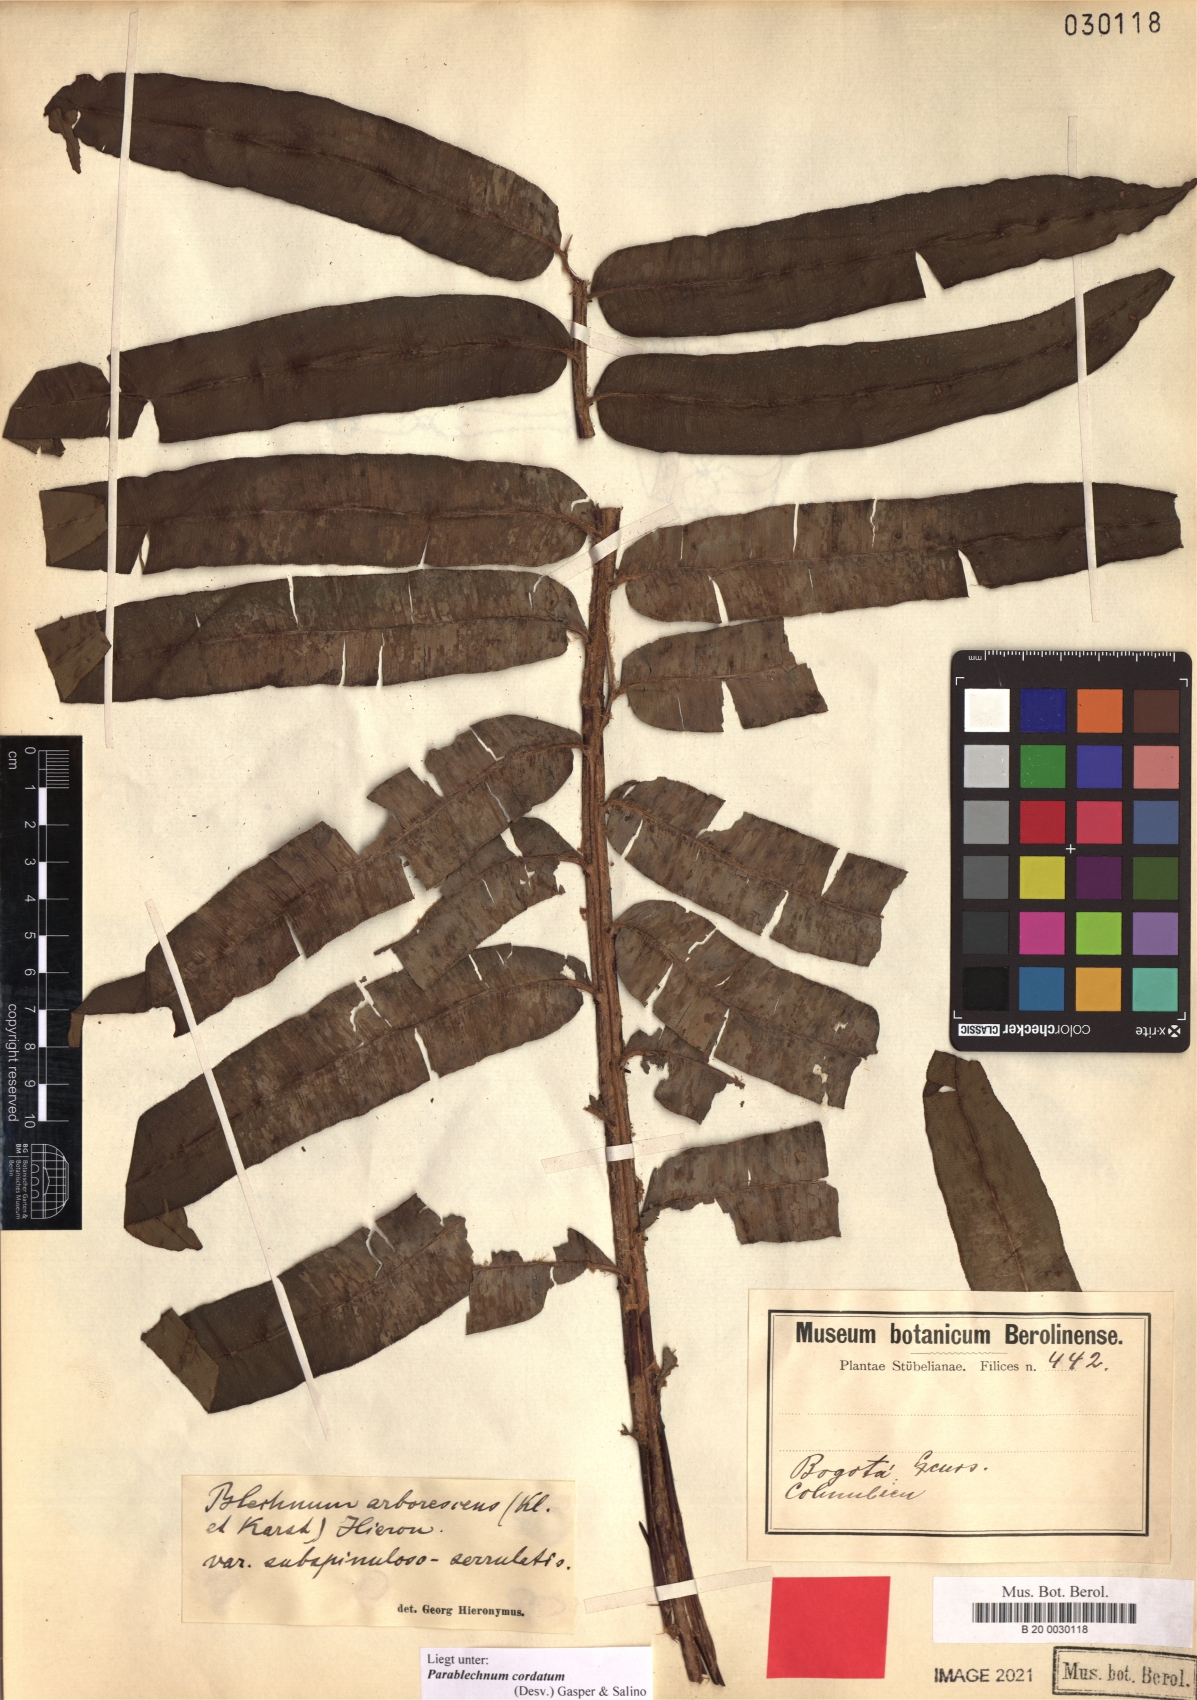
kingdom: Plantae
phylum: Tracheophyta
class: Polypodiopsida
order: Polypodiales
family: Blechnaceae
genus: Parablechnum
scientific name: Parablechnum cordatum
